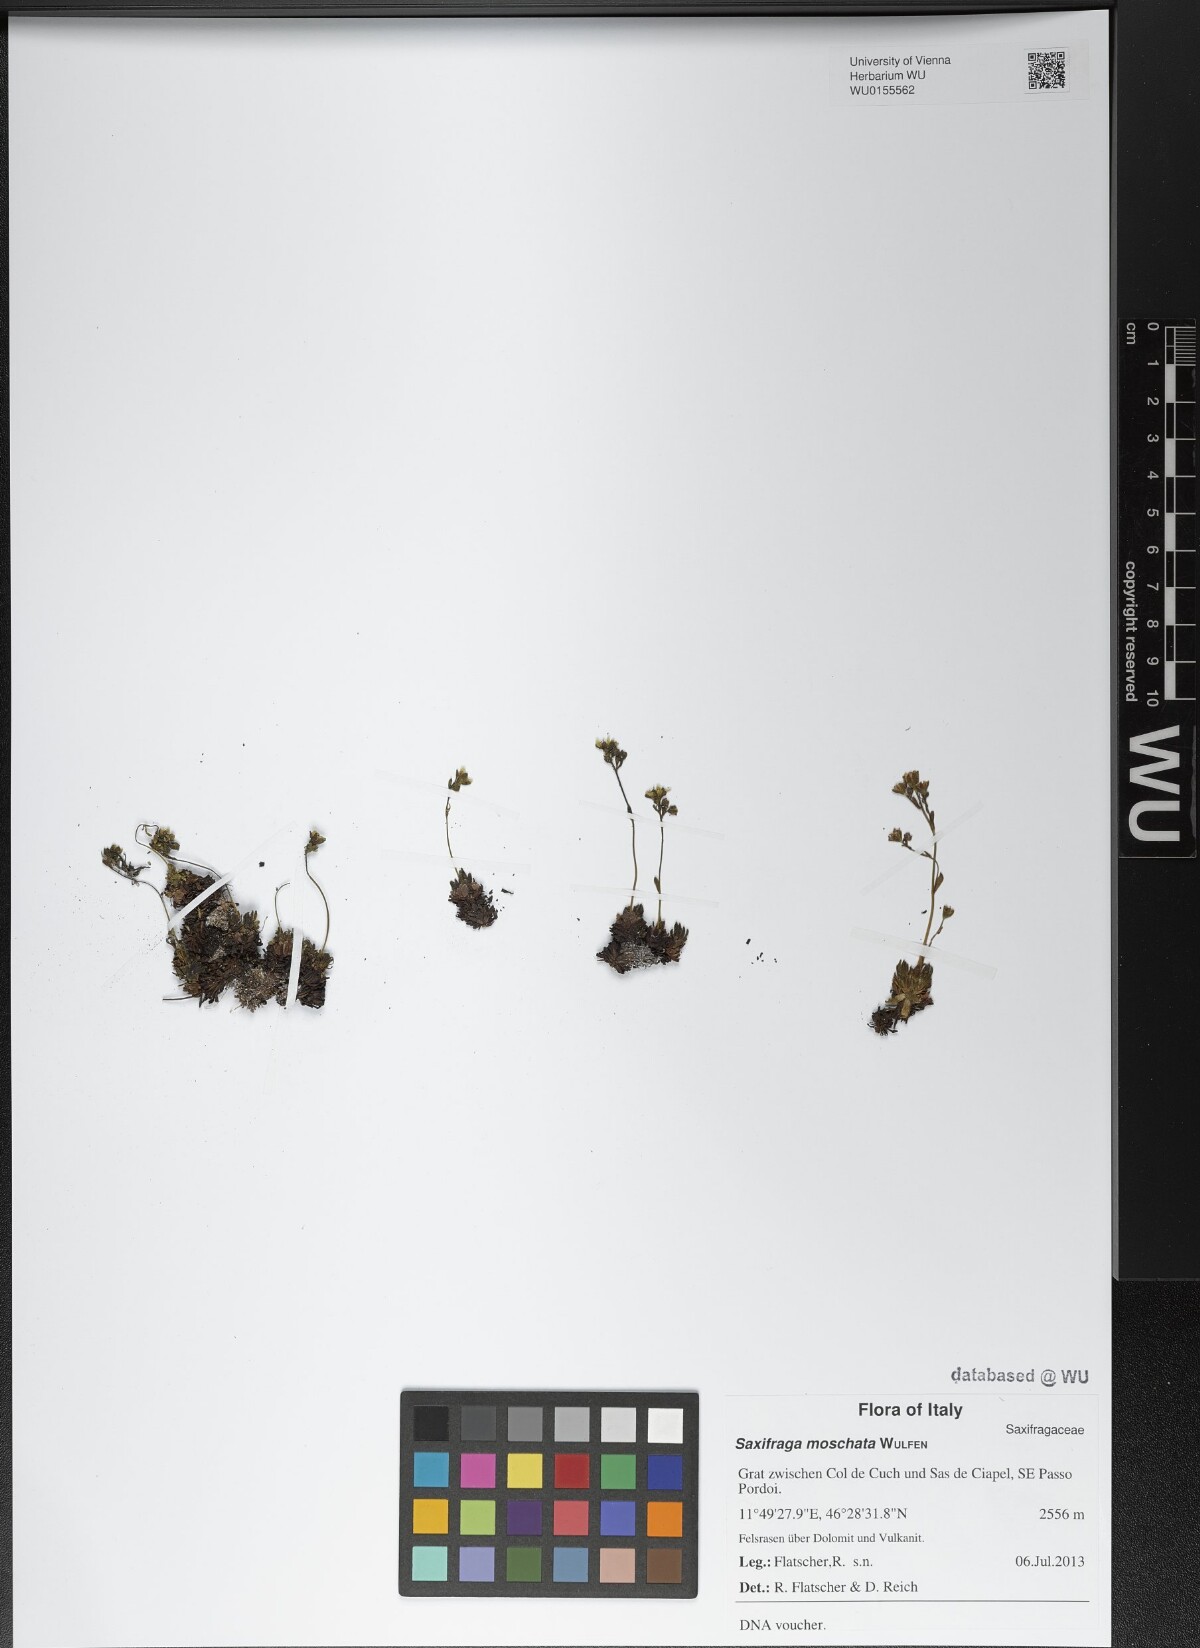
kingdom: Plantae
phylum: Tracheophyta
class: Magnoliopsida
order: Saxifragales
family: Saxifragaceae
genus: Saxifraga
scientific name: Saxifraga moschata
